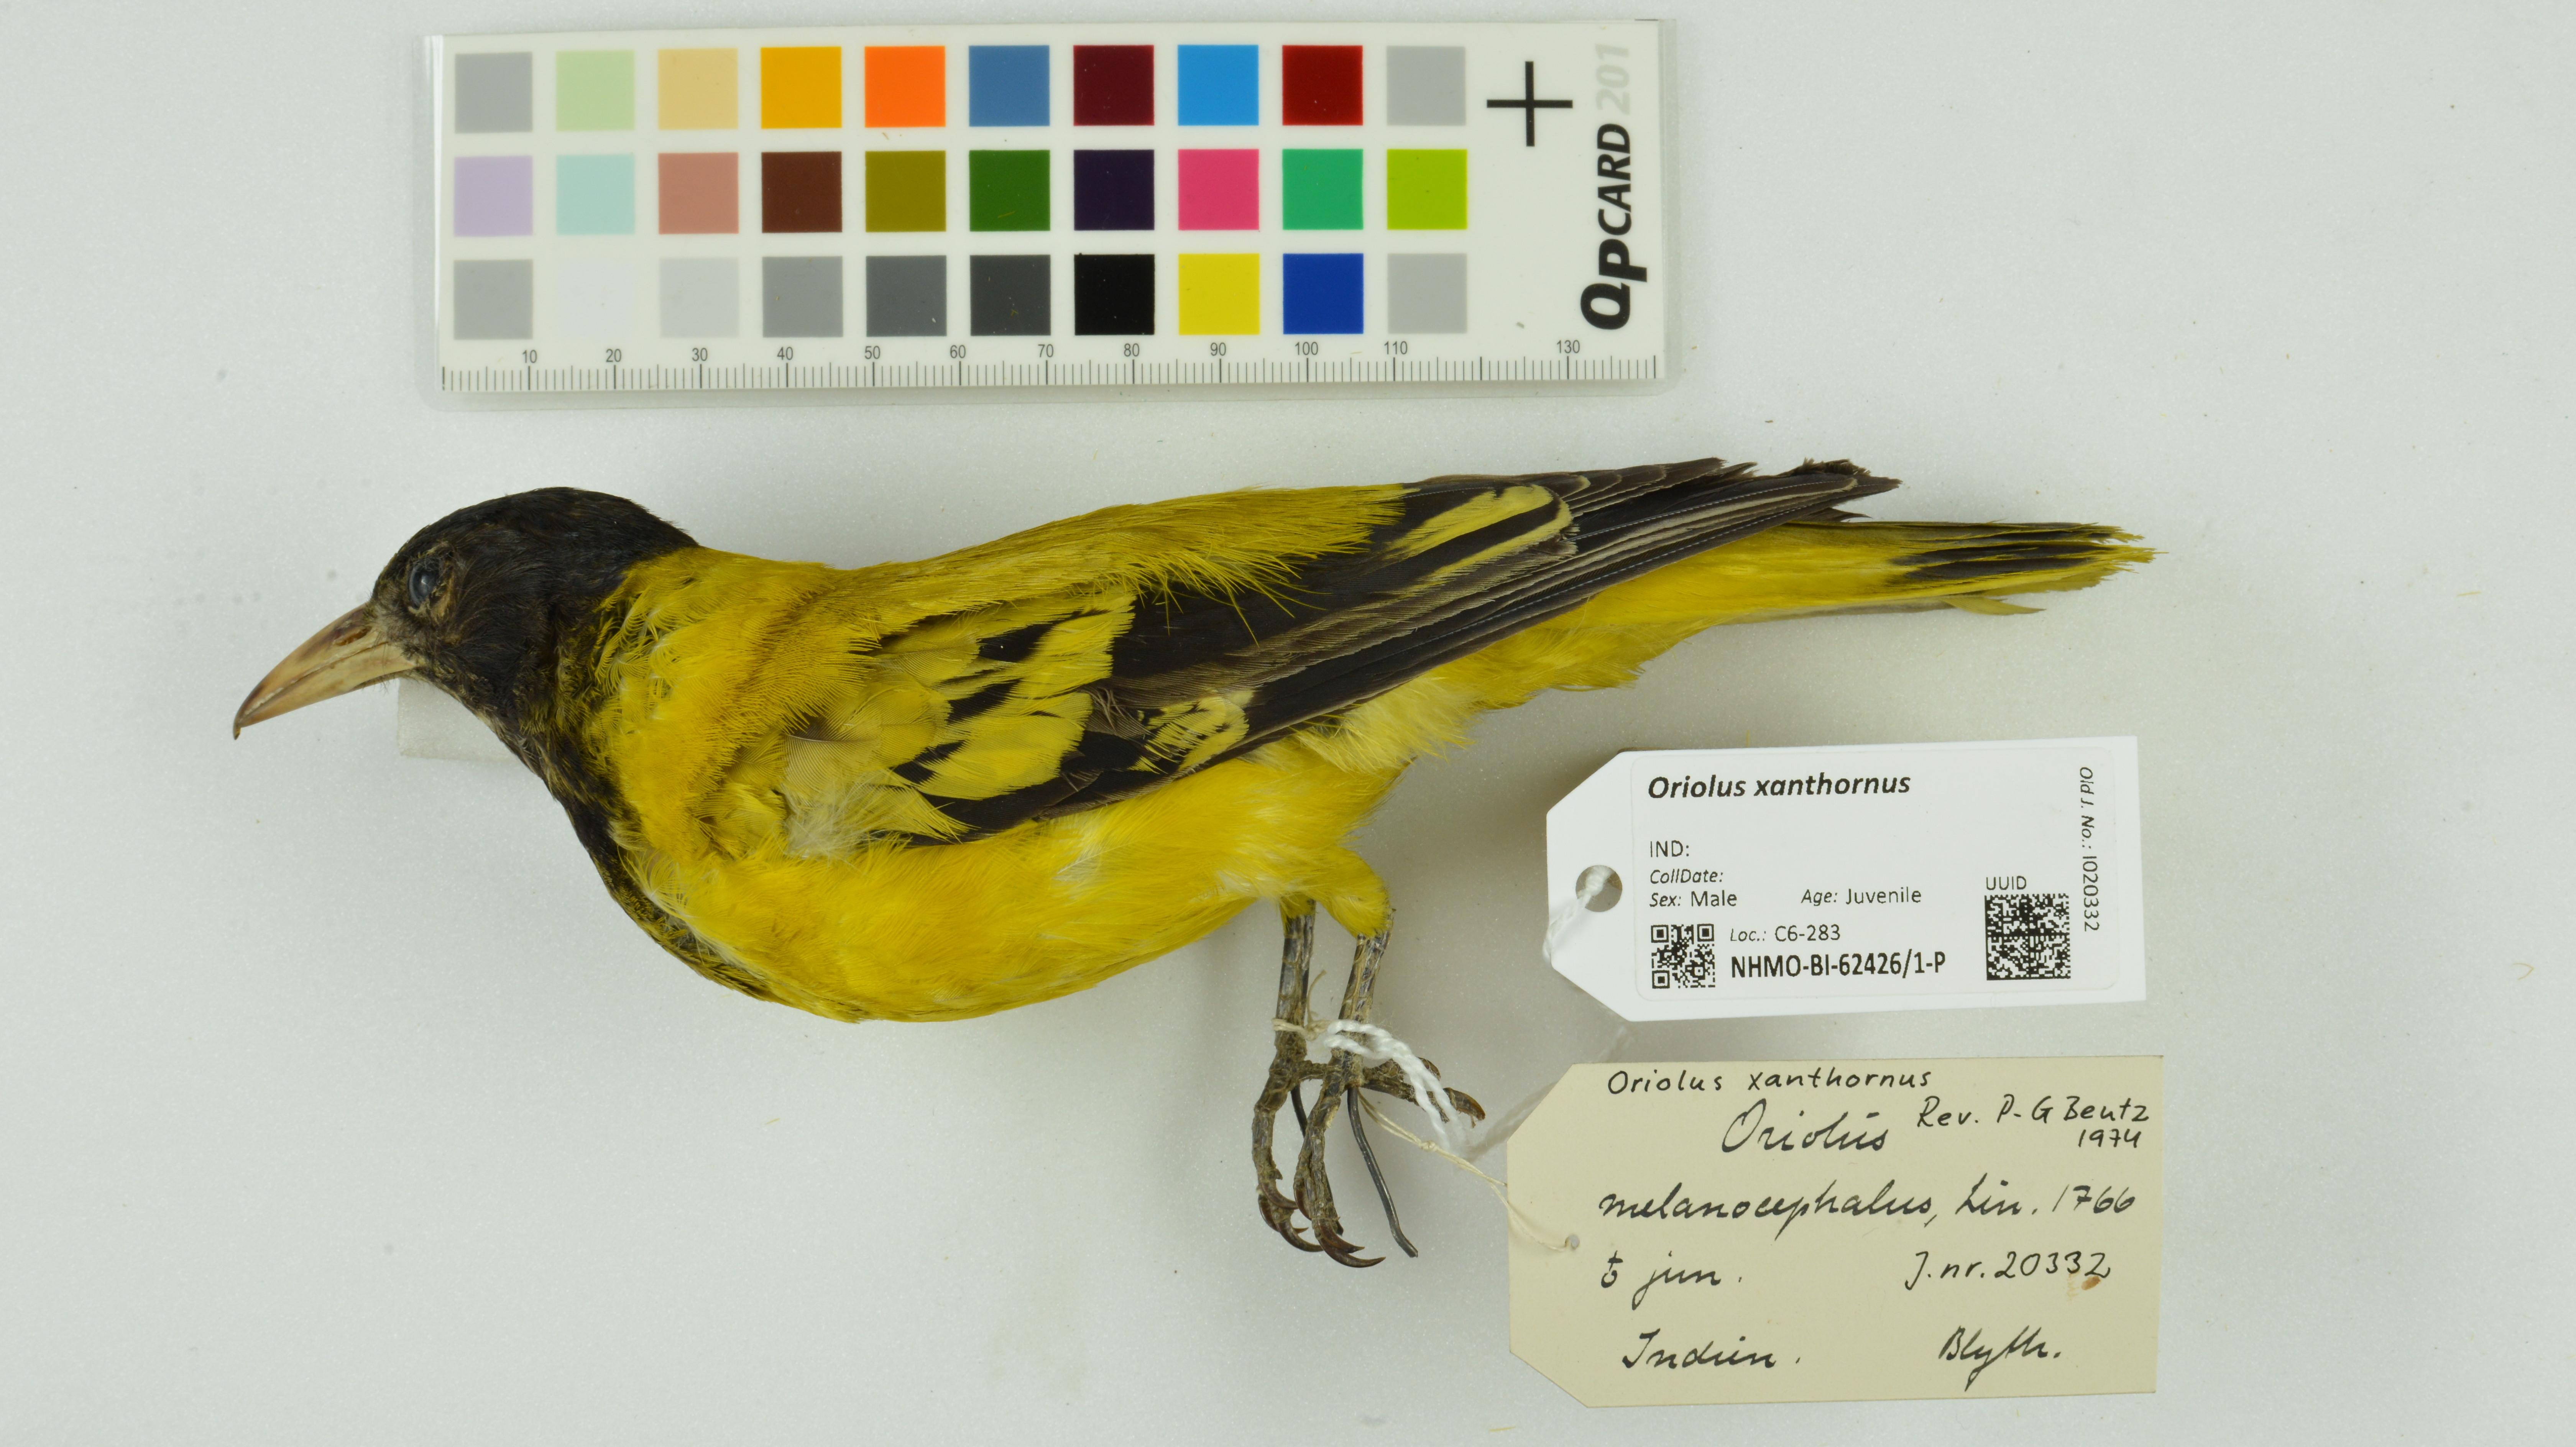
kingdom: Animalia
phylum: Chordata
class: Aves
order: Passeriformes
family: Oriolidae
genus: Oriolus
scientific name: Oriolus xanthornus
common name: Black-hooded oriole
